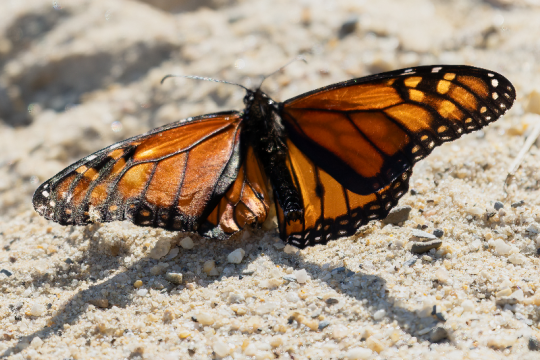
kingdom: Animalia
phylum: Arthropoda
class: Insecta
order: Lepidoptera
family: Nymphalidae
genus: Danaus
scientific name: Danaus plexippus
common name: Monarch
